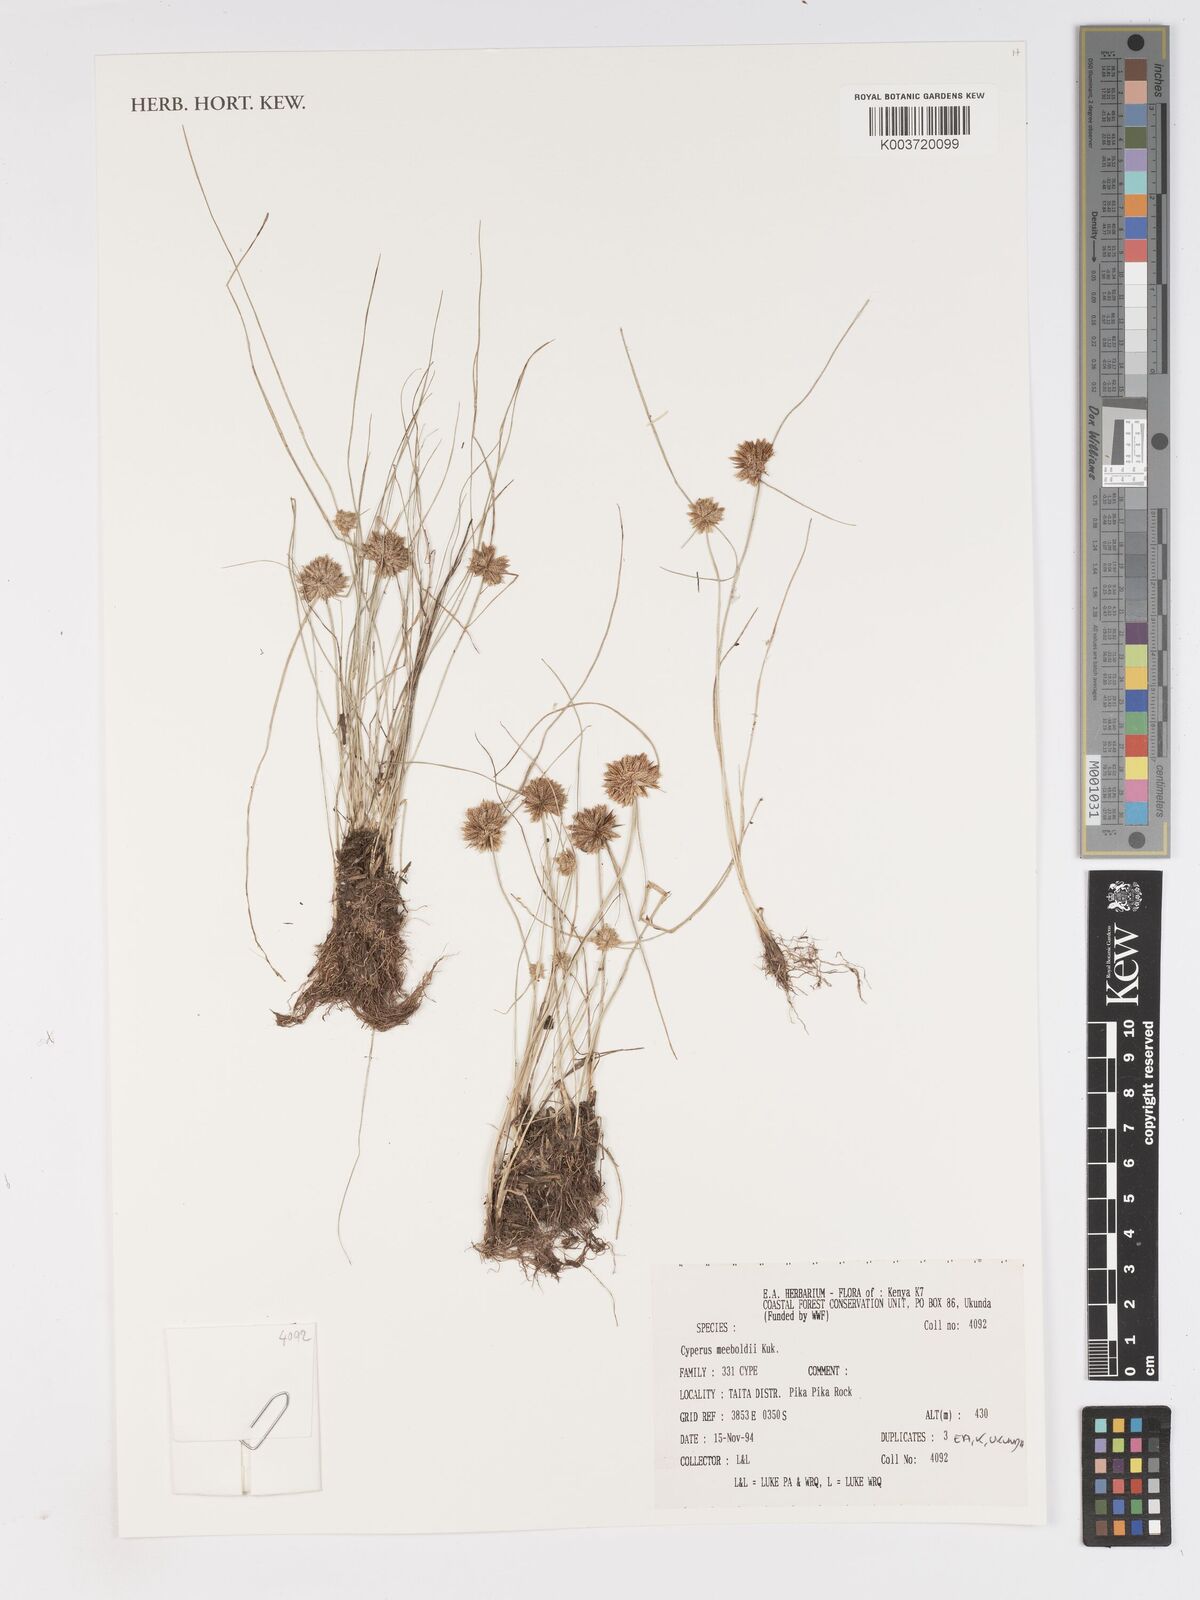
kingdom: Plantae
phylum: Tracheophyta
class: Liliopsida
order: Poales
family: Cyperaceae
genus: Cyperus
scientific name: Cyperus meeboldii
